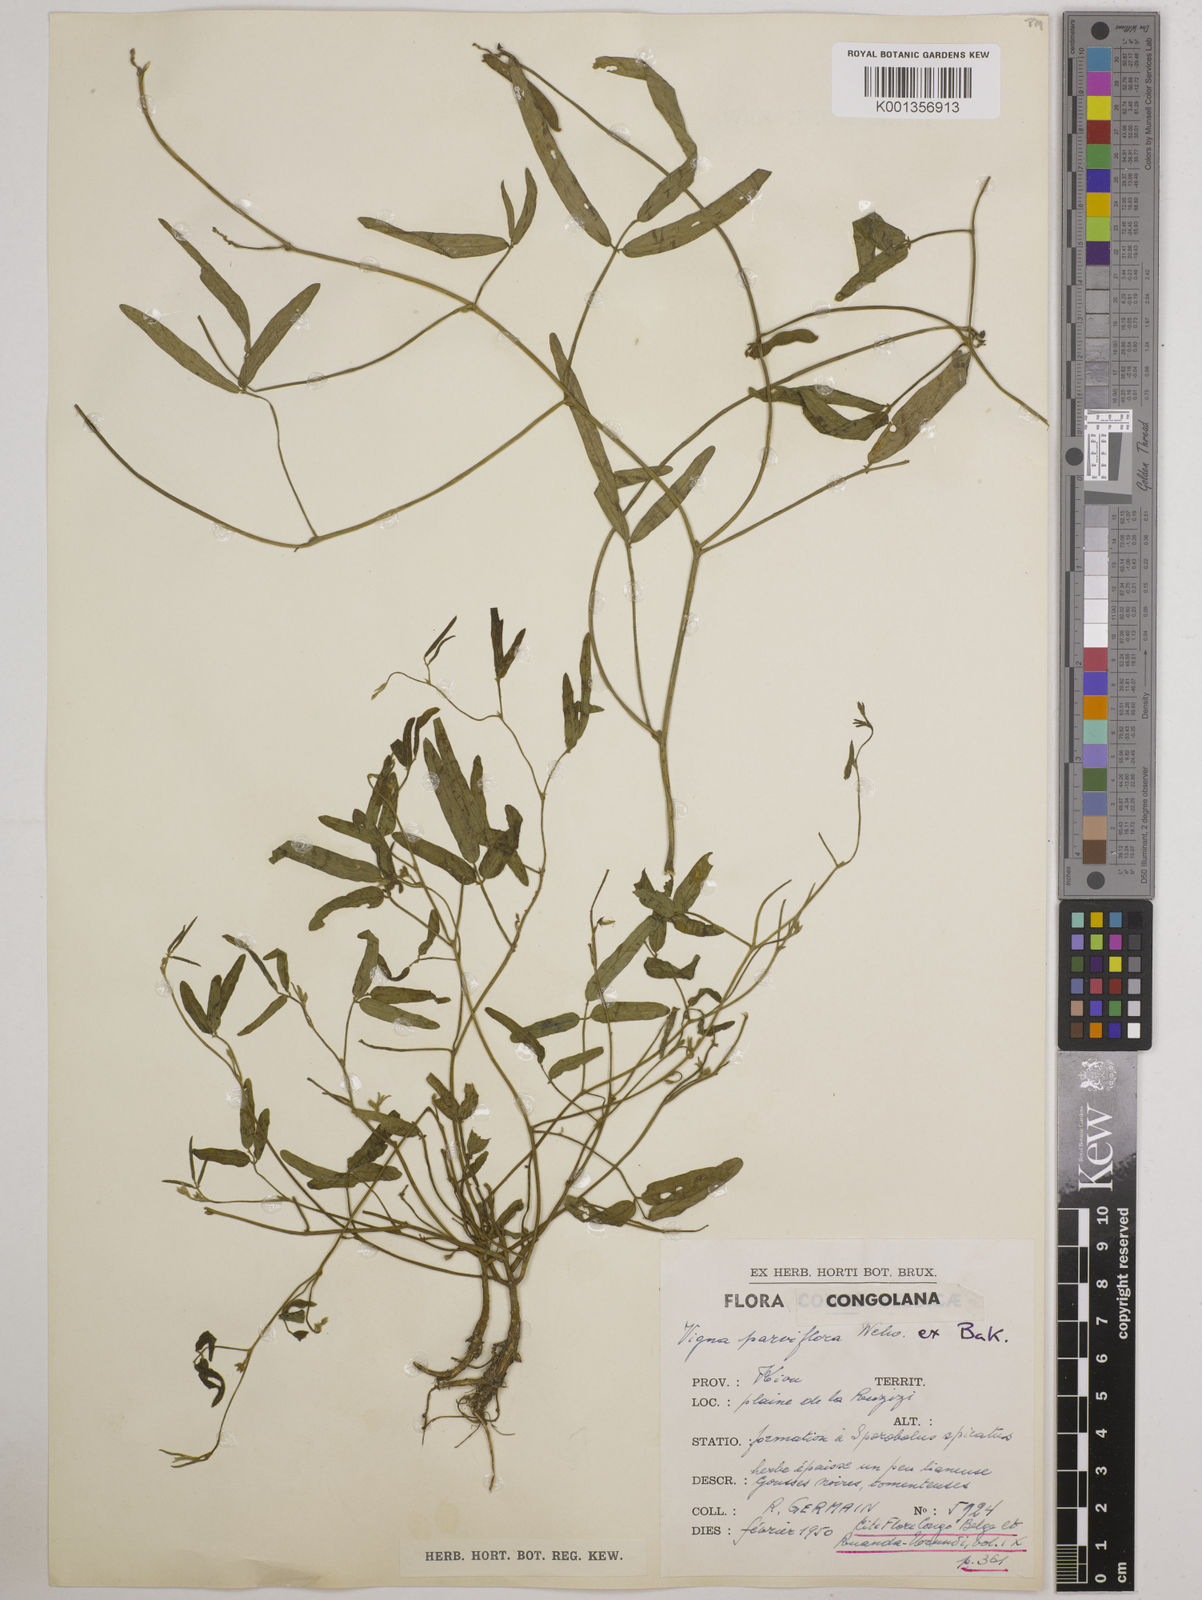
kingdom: Plantae
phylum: Tracheophyta
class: Magnoliopsida
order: Fabales
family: Fabaceae
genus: Vigna
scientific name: Vigna
